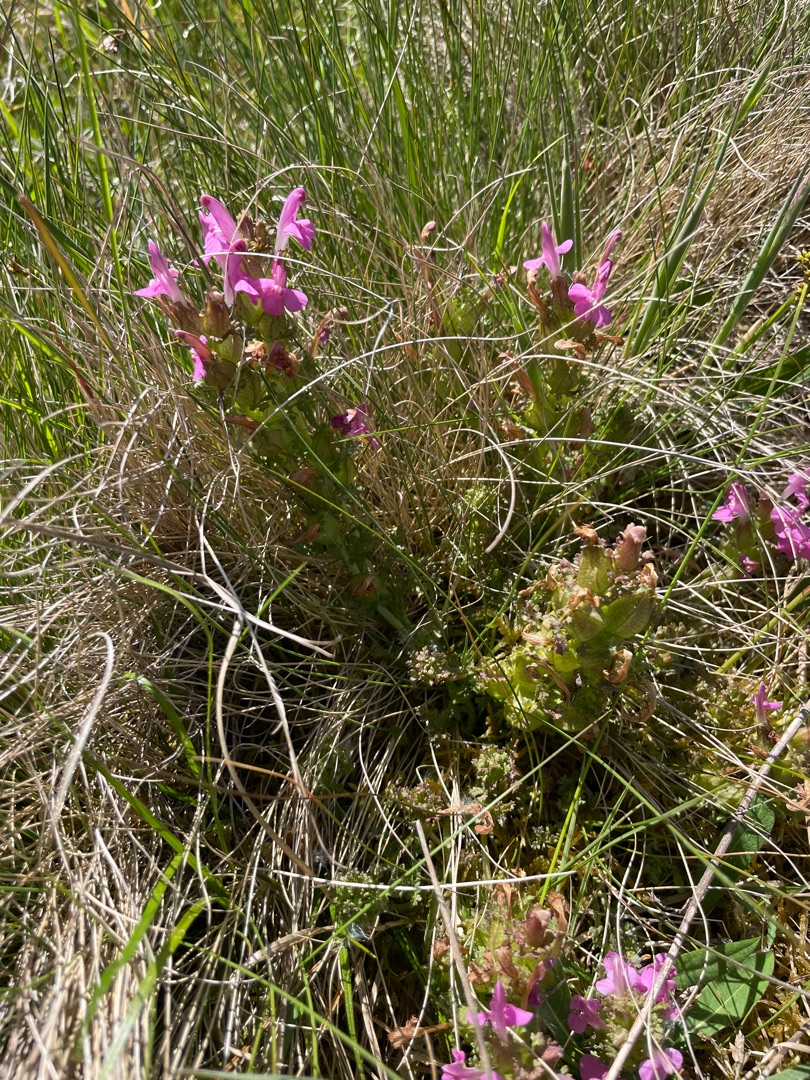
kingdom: Plantae
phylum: Tracheophyta
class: Magnoliopsida
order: Lamiales
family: Orobanchaceae
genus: Pedicularis
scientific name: Pedicularis sylvatica
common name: Mose-troldurt
